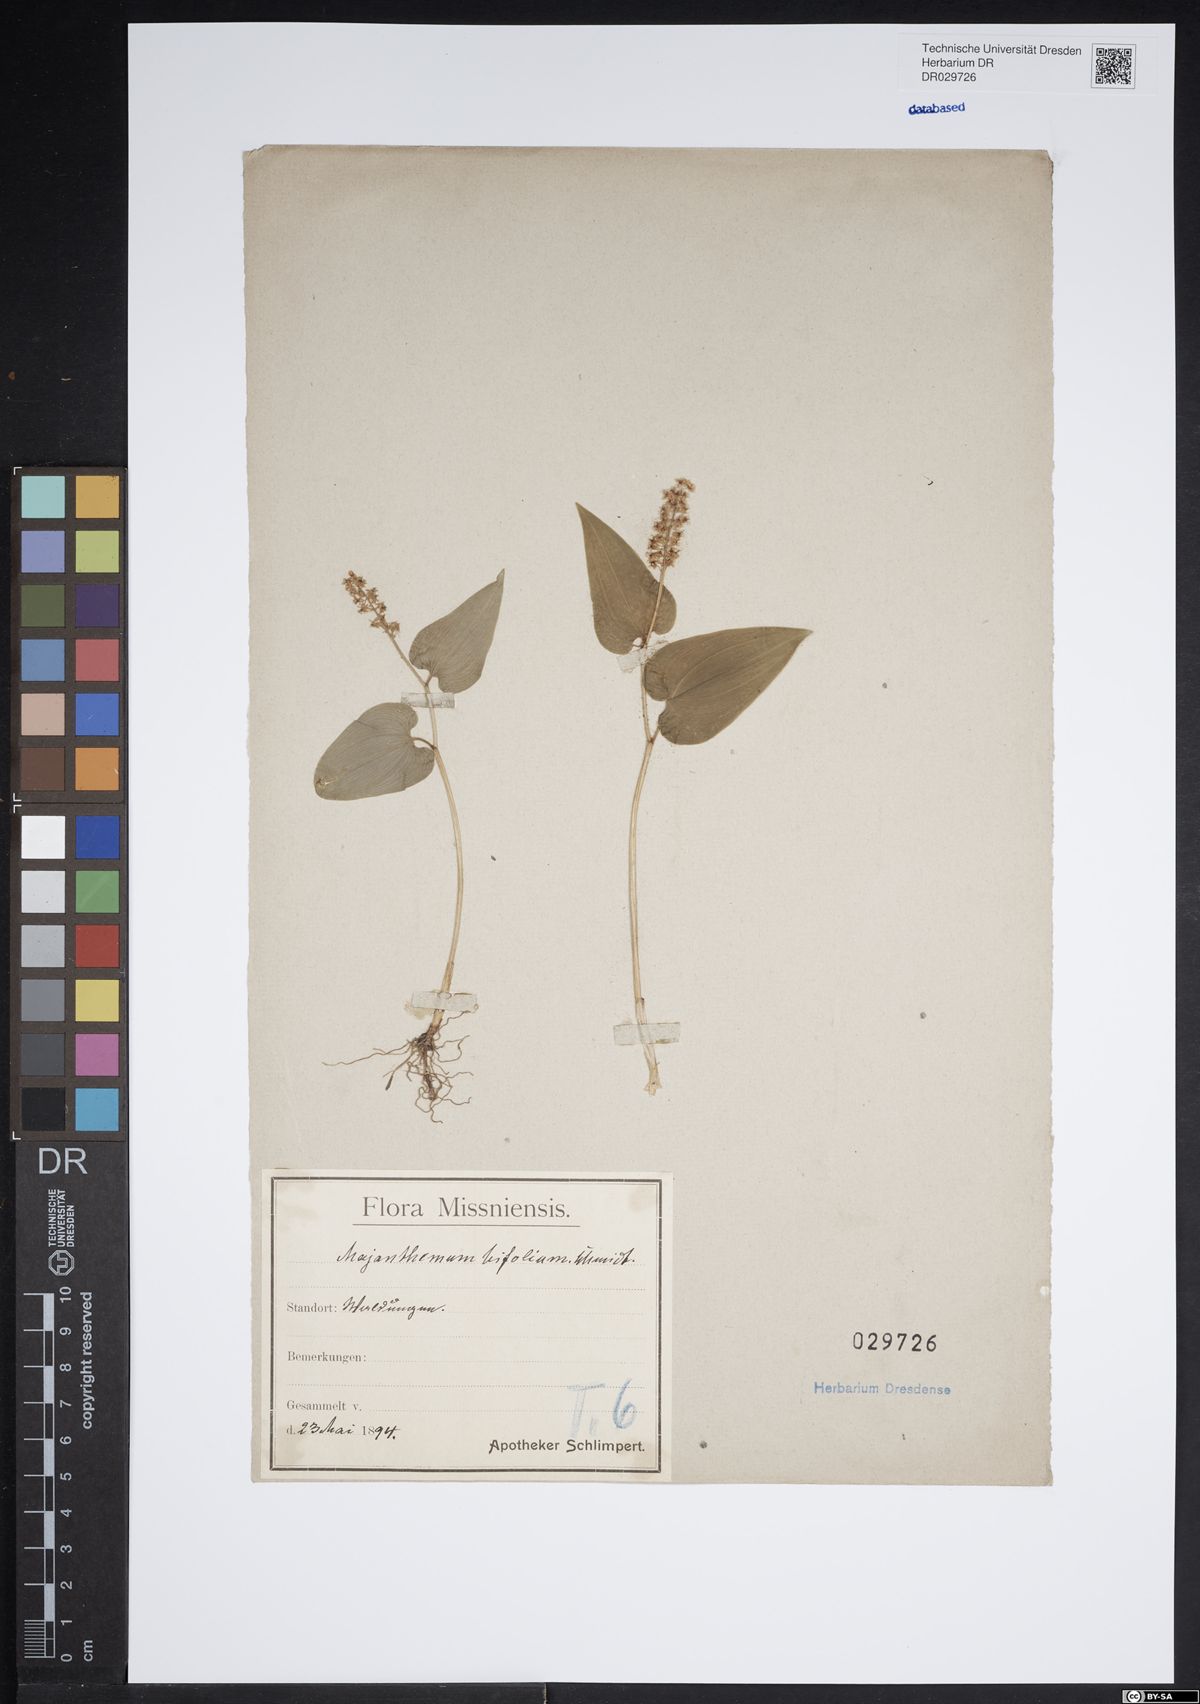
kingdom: Plantae
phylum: Tracheophyta
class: Liliopsida
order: Asparagales
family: Asparagaceae
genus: Maianthemum
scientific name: Maianthemum bifolium
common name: May lily
